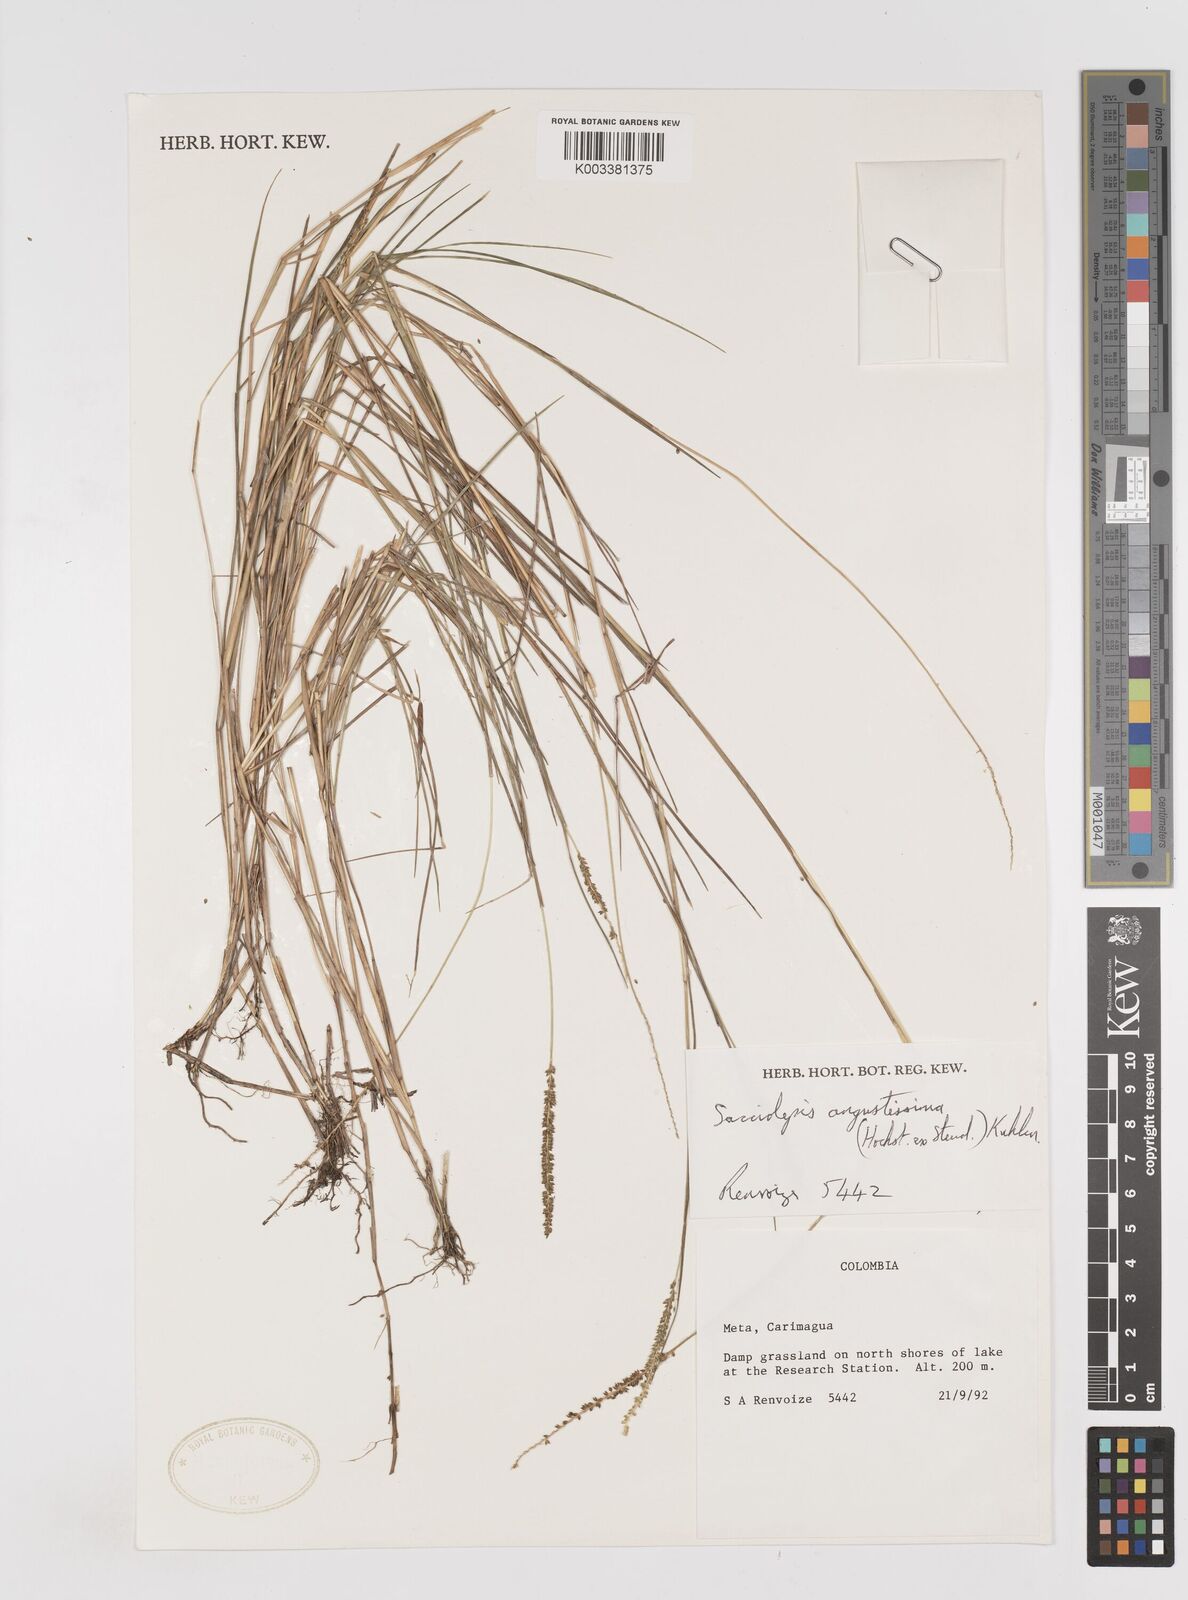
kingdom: Plantae
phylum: Tracheophyta
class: Liliopsida
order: Poales
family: Poaceae
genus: Sacciolepis
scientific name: Sacciolepis angustissima
